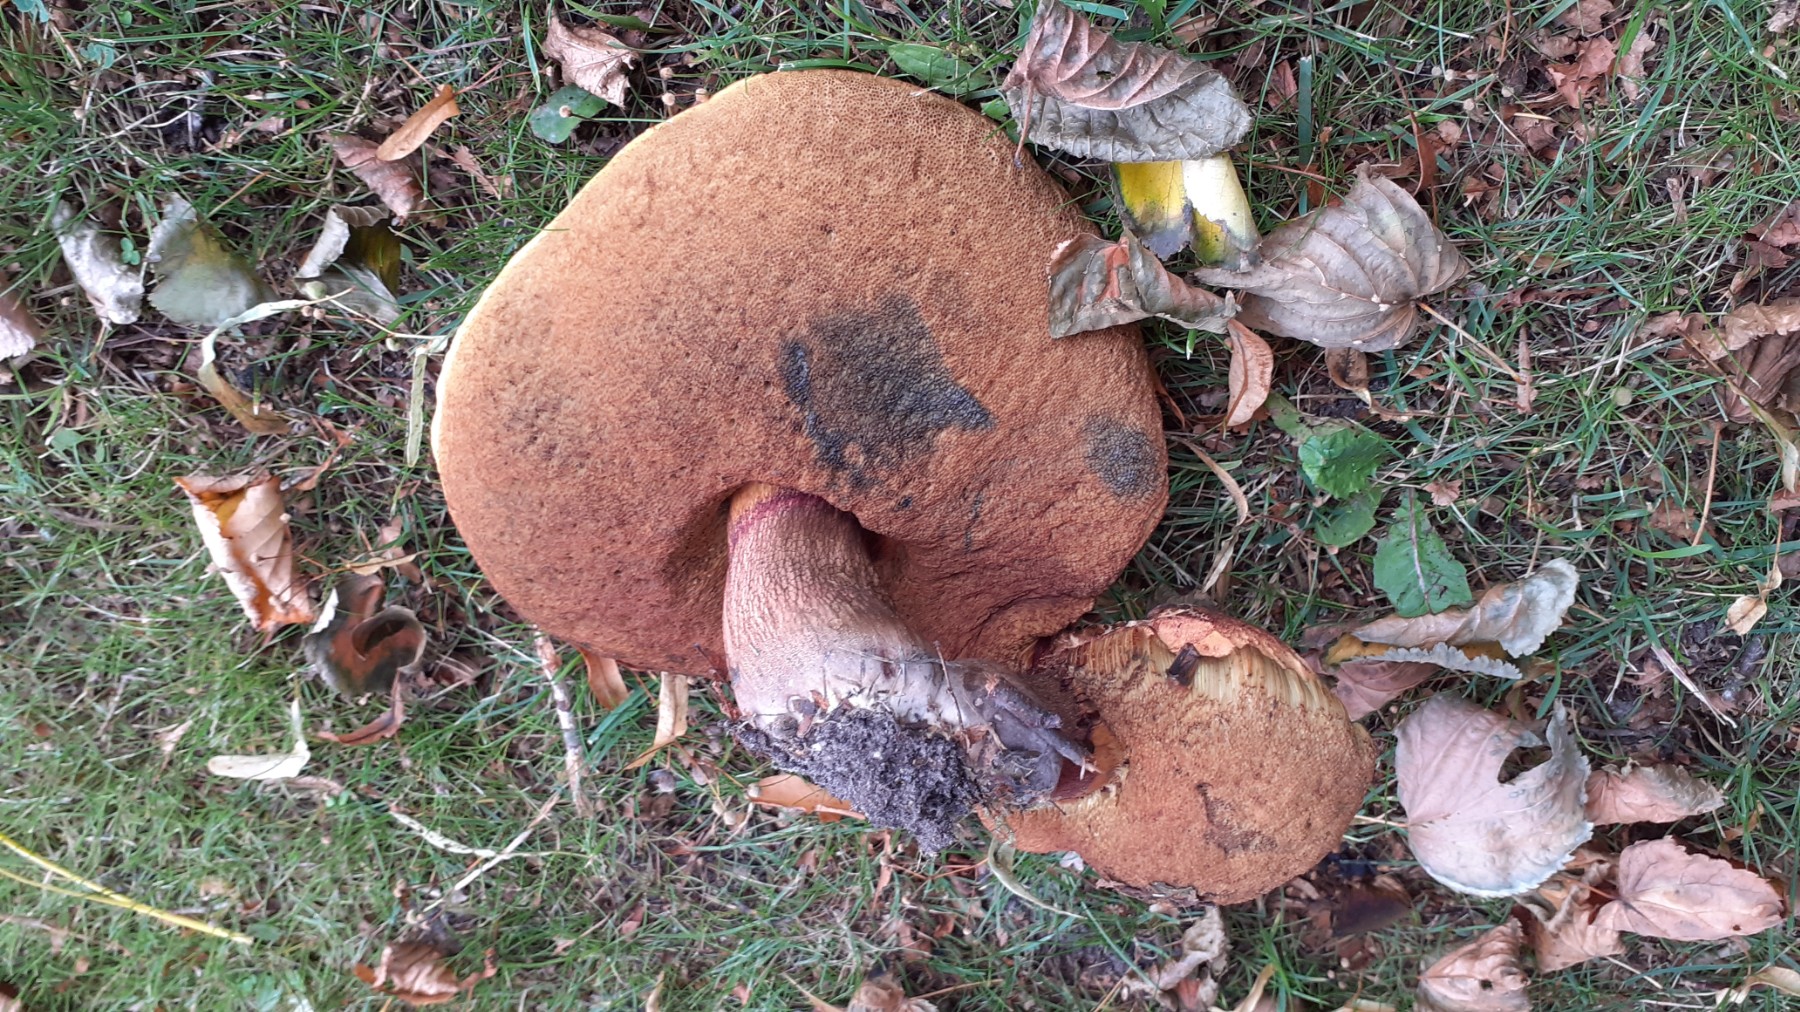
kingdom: Fungi
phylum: Basidiomycota
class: Agaricomycetes
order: Boletales
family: Boletaceae
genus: Suillellus
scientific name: Suillellus luridus
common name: netstokket indigorørhat
